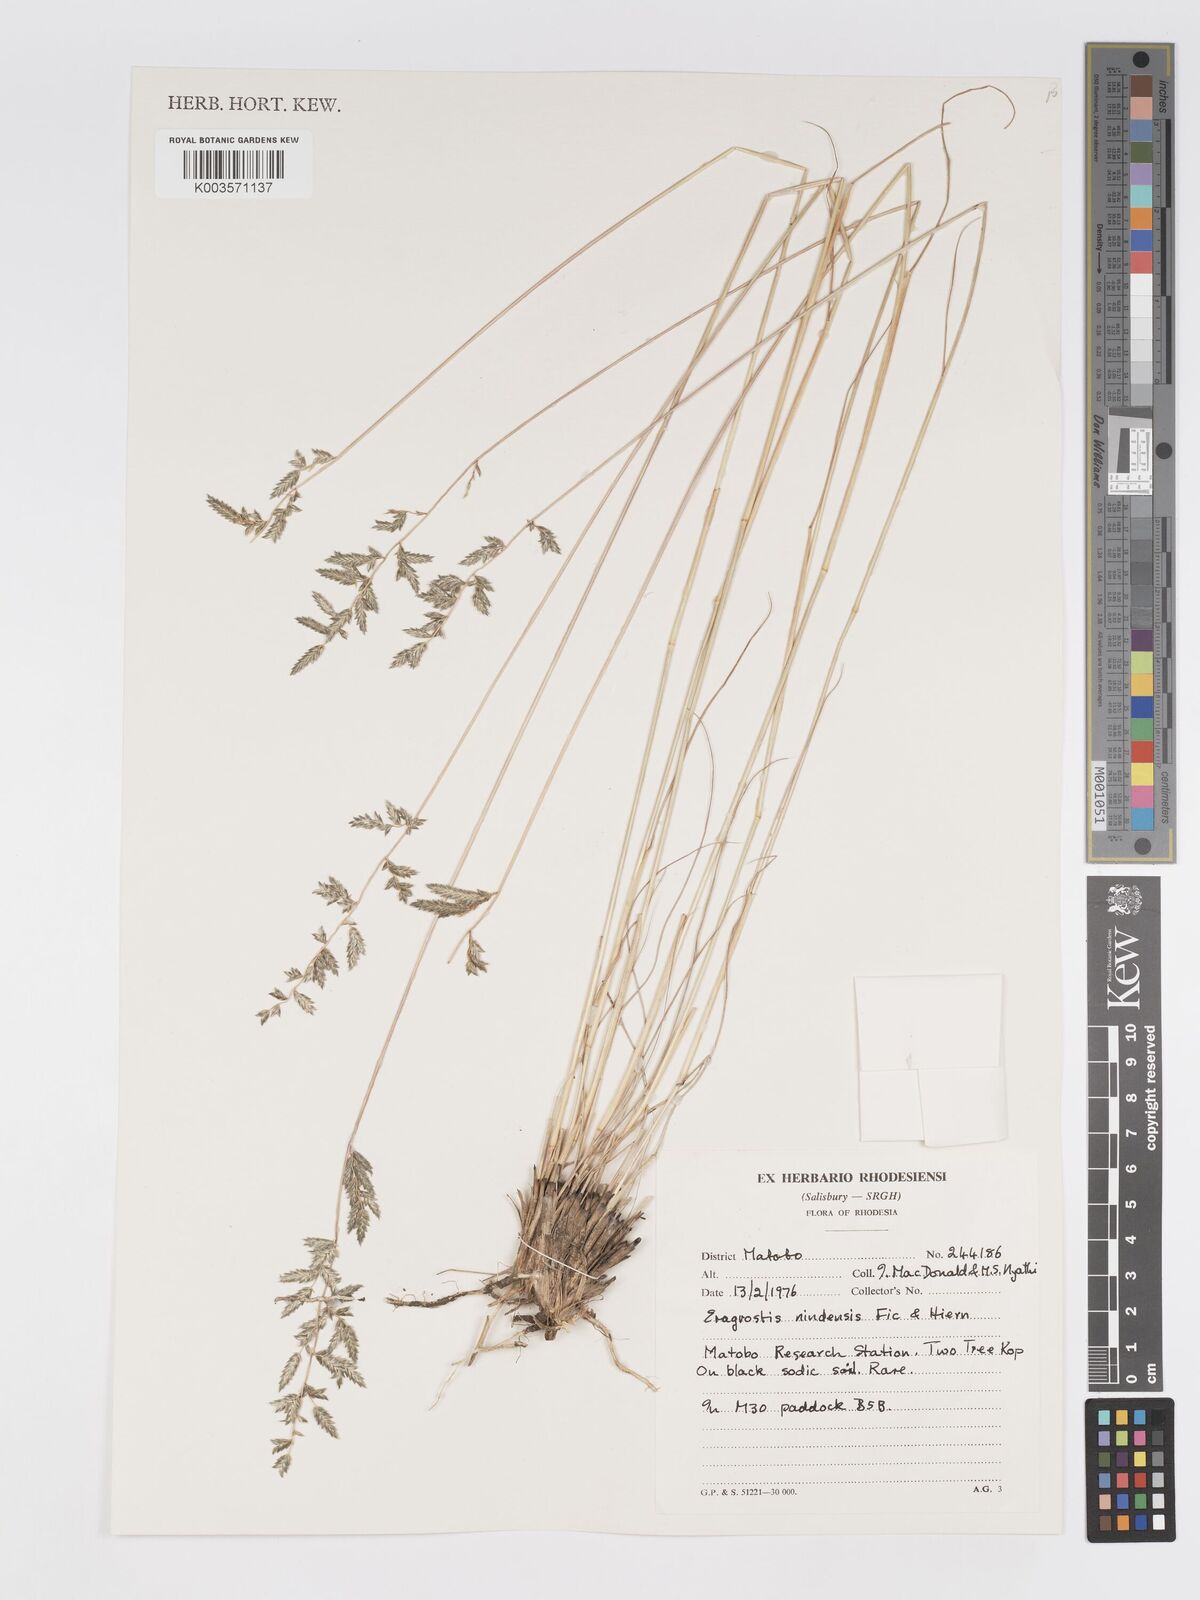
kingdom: Plantae
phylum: Tracheophyta
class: Liliopsida
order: Poales
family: Poaceae
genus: Eragrostis
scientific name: Eragrostis nindensis
